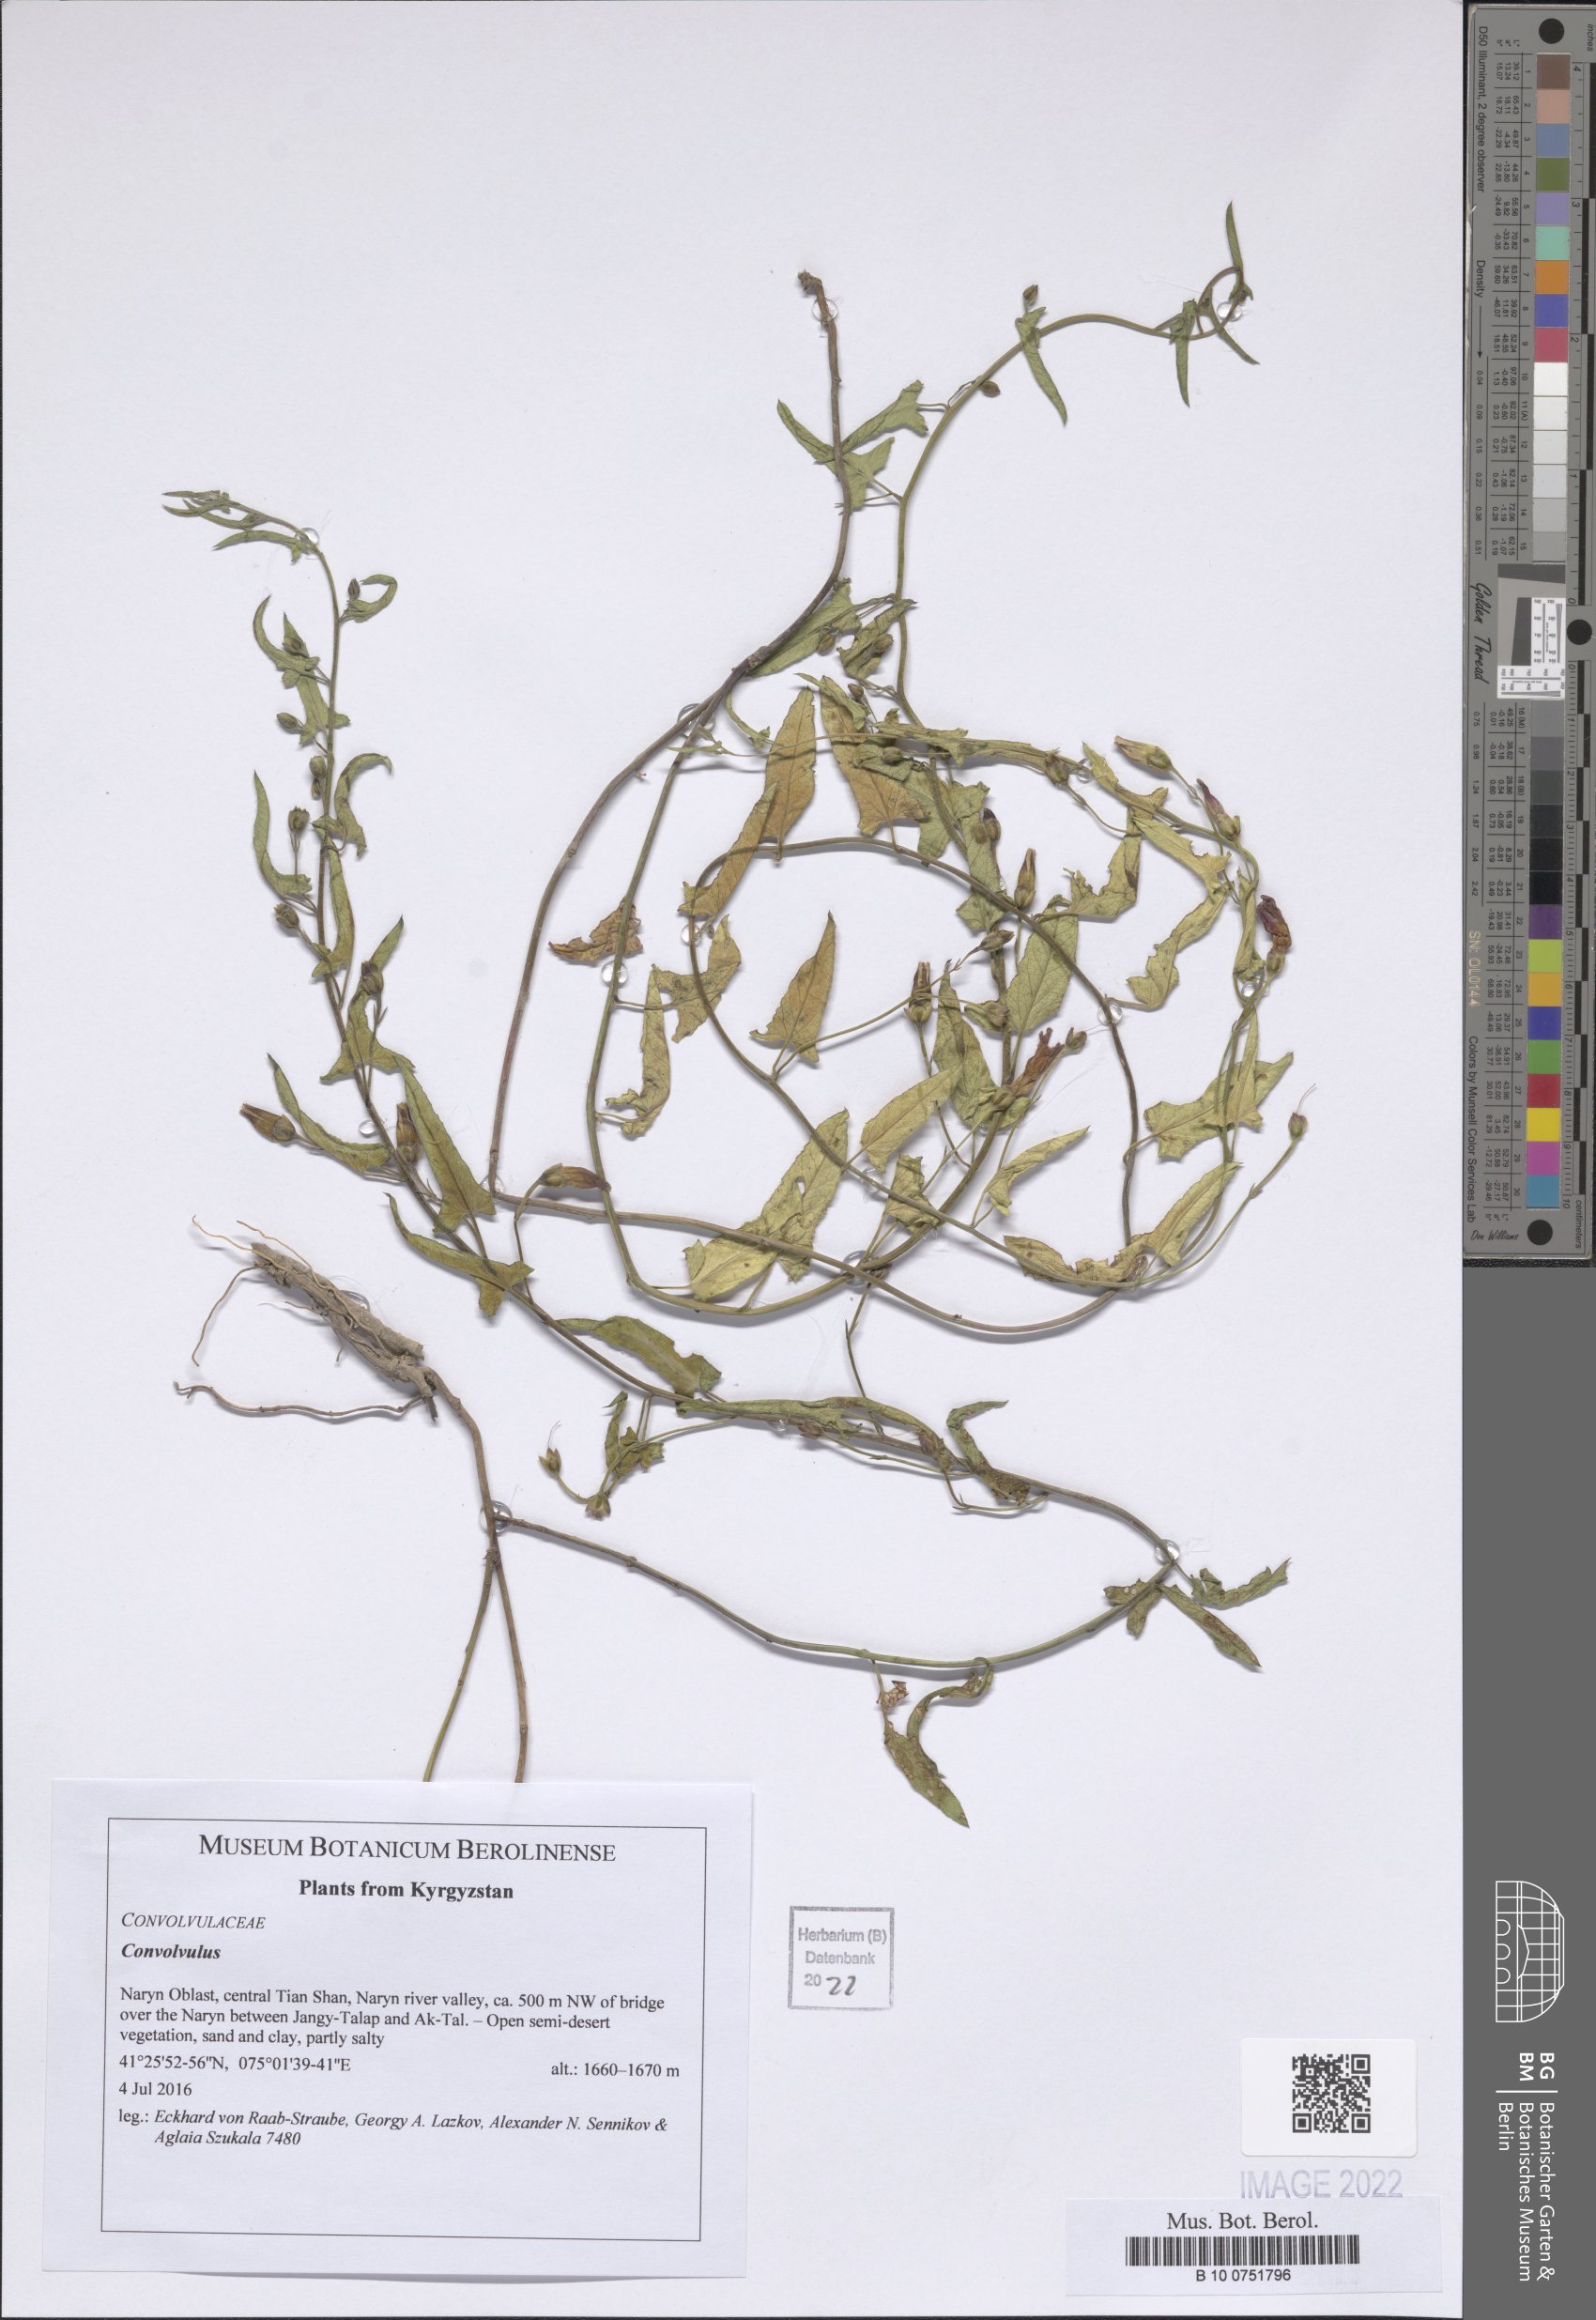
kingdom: Plantae
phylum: Tracheophyta
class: Magnoliopsida
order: Solanales
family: Convolvulaceae
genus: Convolvulus
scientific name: Convolvulus
